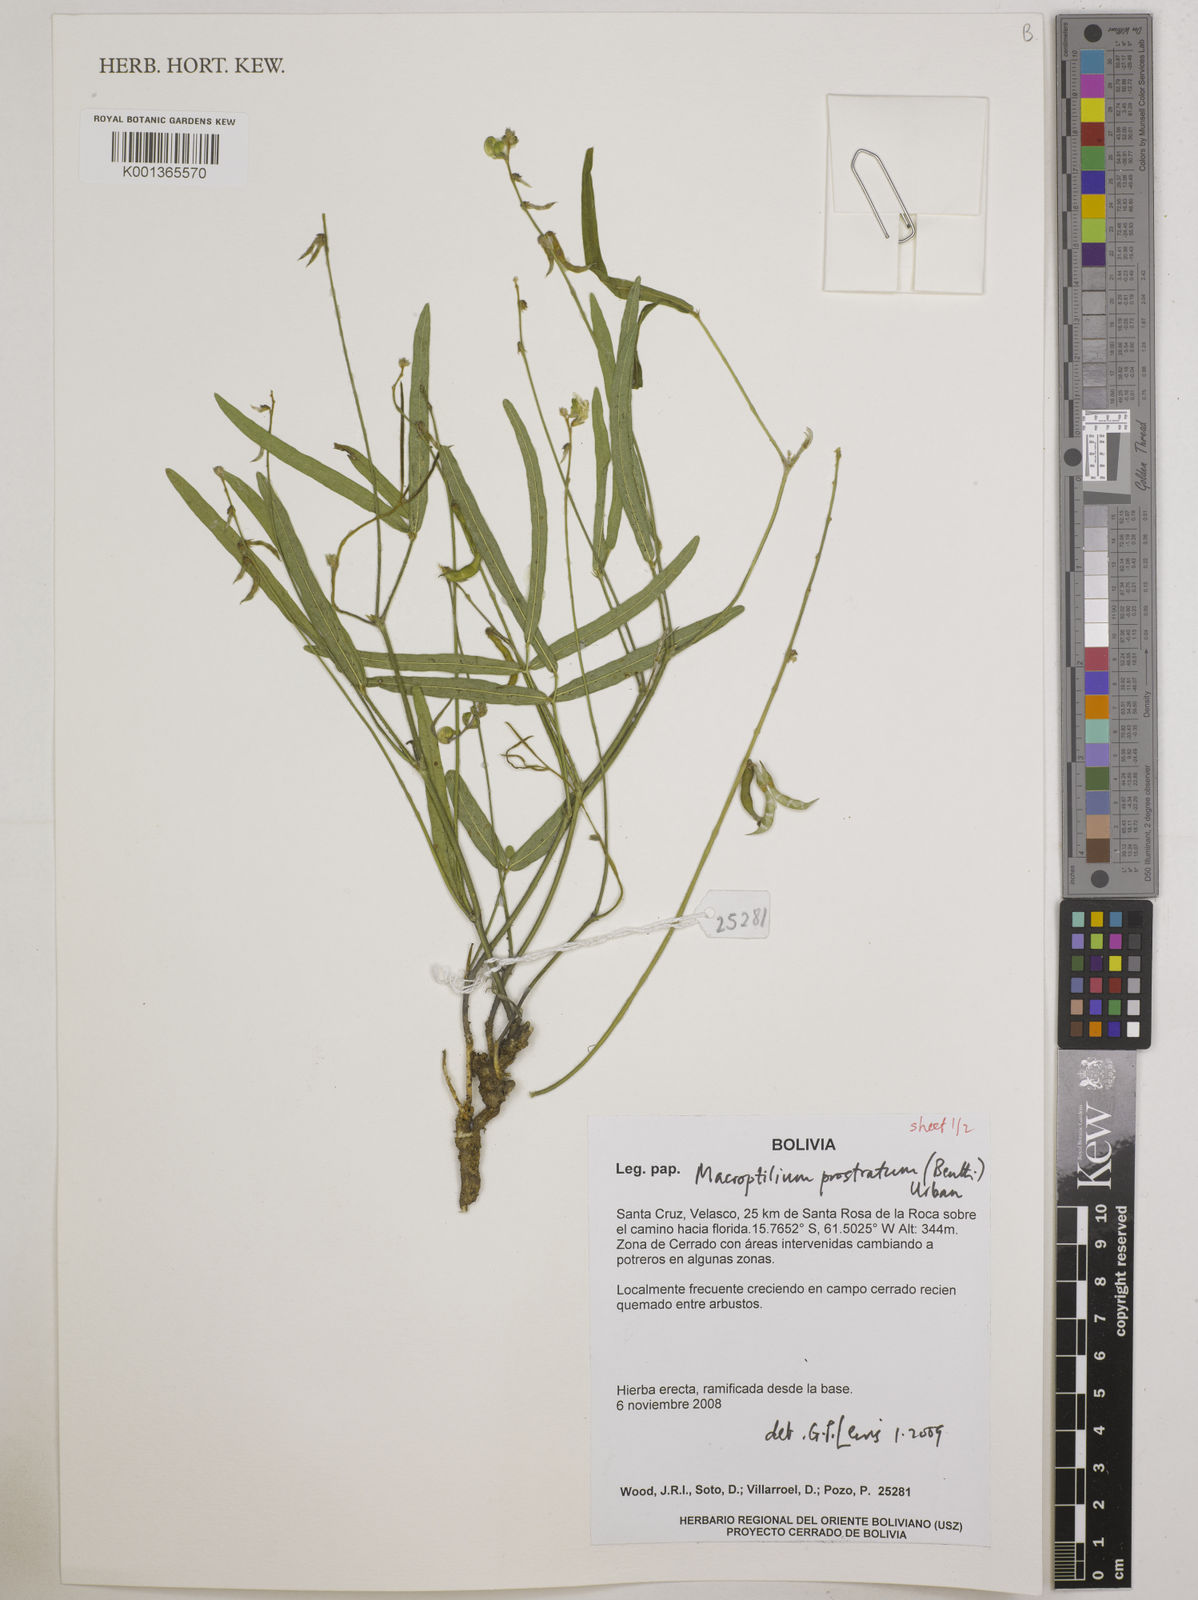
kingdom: Plantae
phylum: Tracheophyta
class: Magnoliopsida
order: Fabales
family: Fabaceae
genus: Macroptilium
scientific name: Macroptilium prostratum
